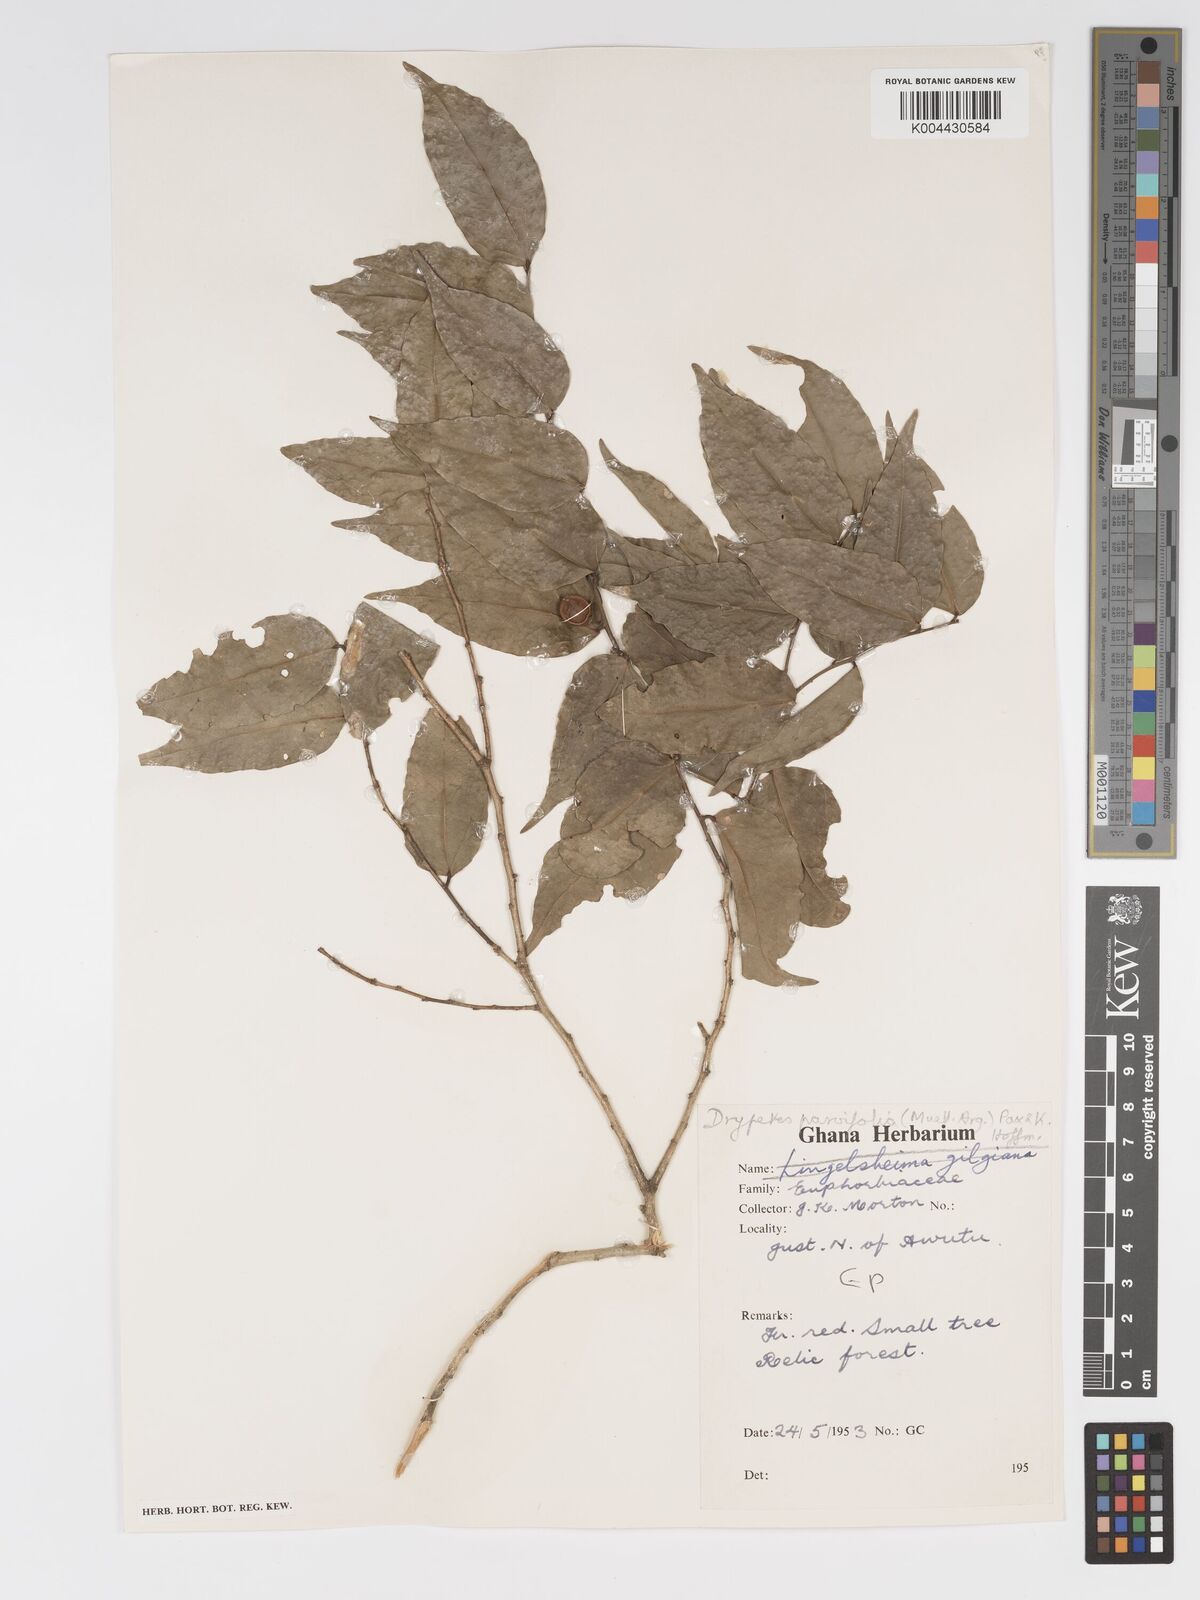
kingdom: Plantae
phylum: Tracheophyta
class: Magnoliopsida
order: Malpighiales
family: Putranjivaceae
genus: Drypetes
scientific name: Drypetes parvifolia
